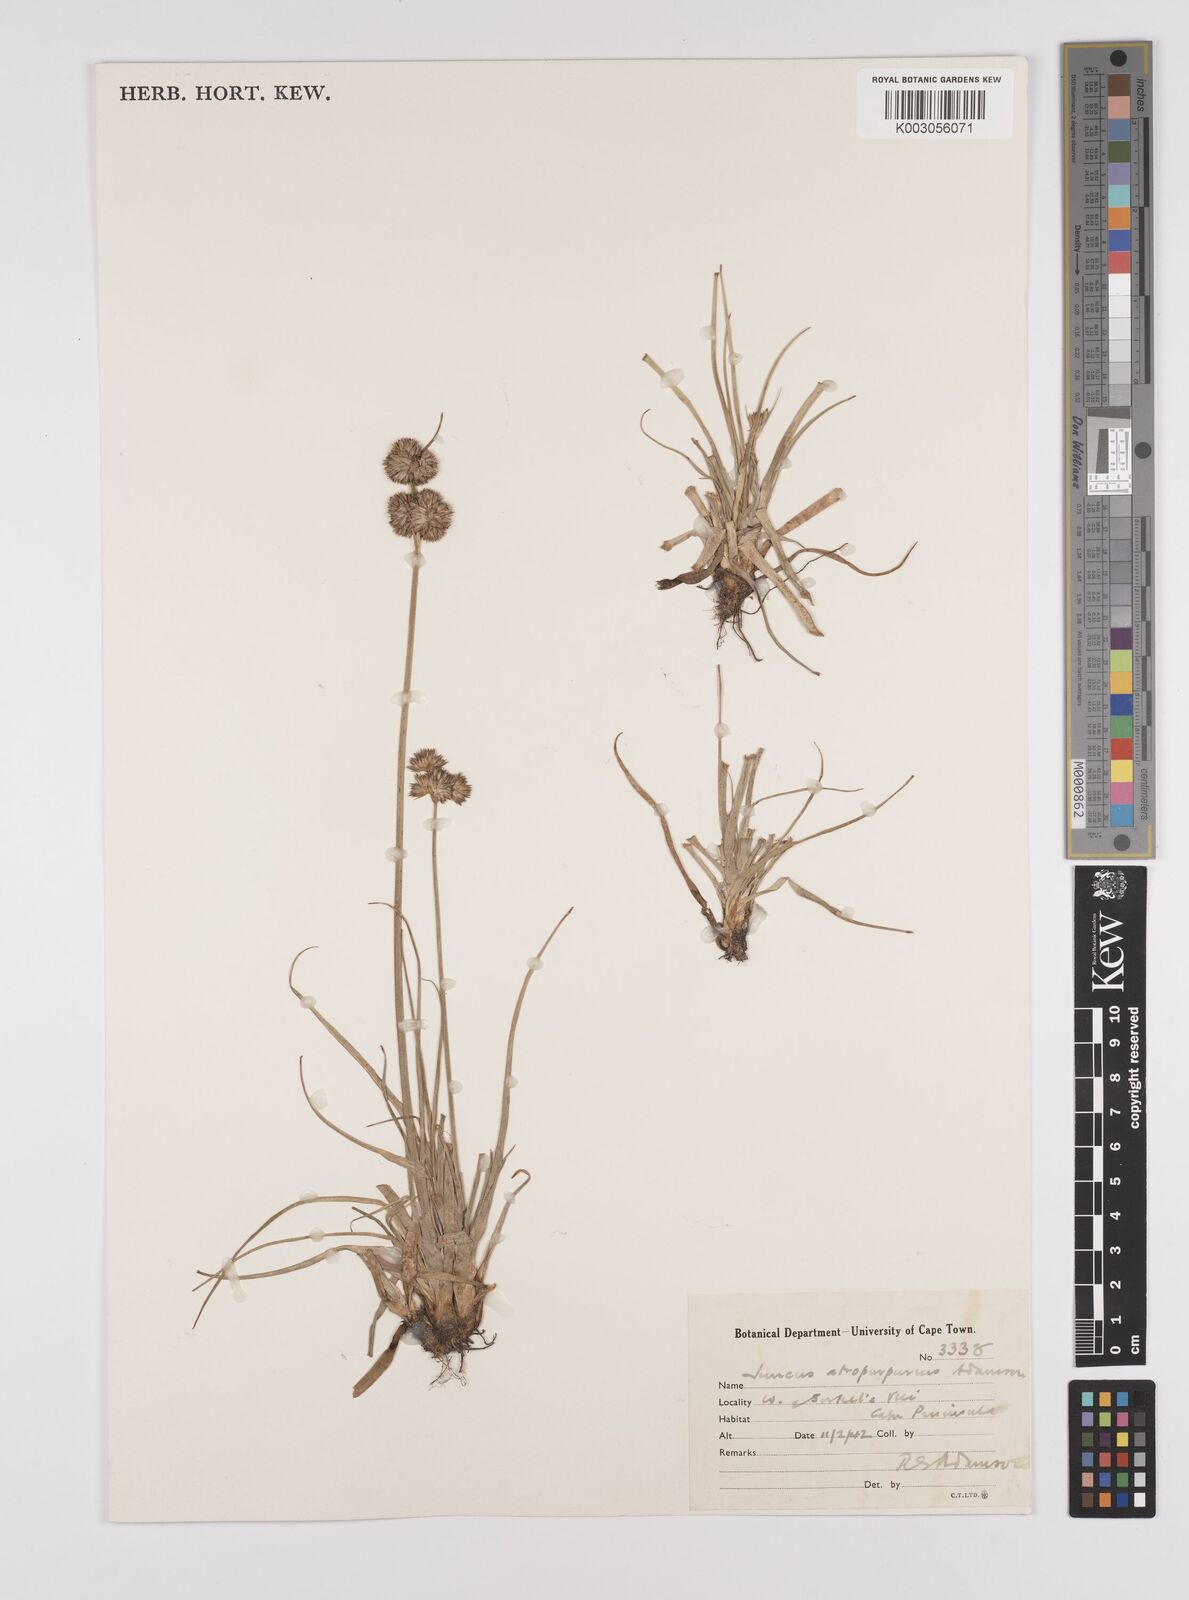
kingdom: Plantae
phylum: Tracheophyta
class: Liliopsida
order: Poales
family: Juncaceae
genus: Juncus
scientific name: Juncus capensis
